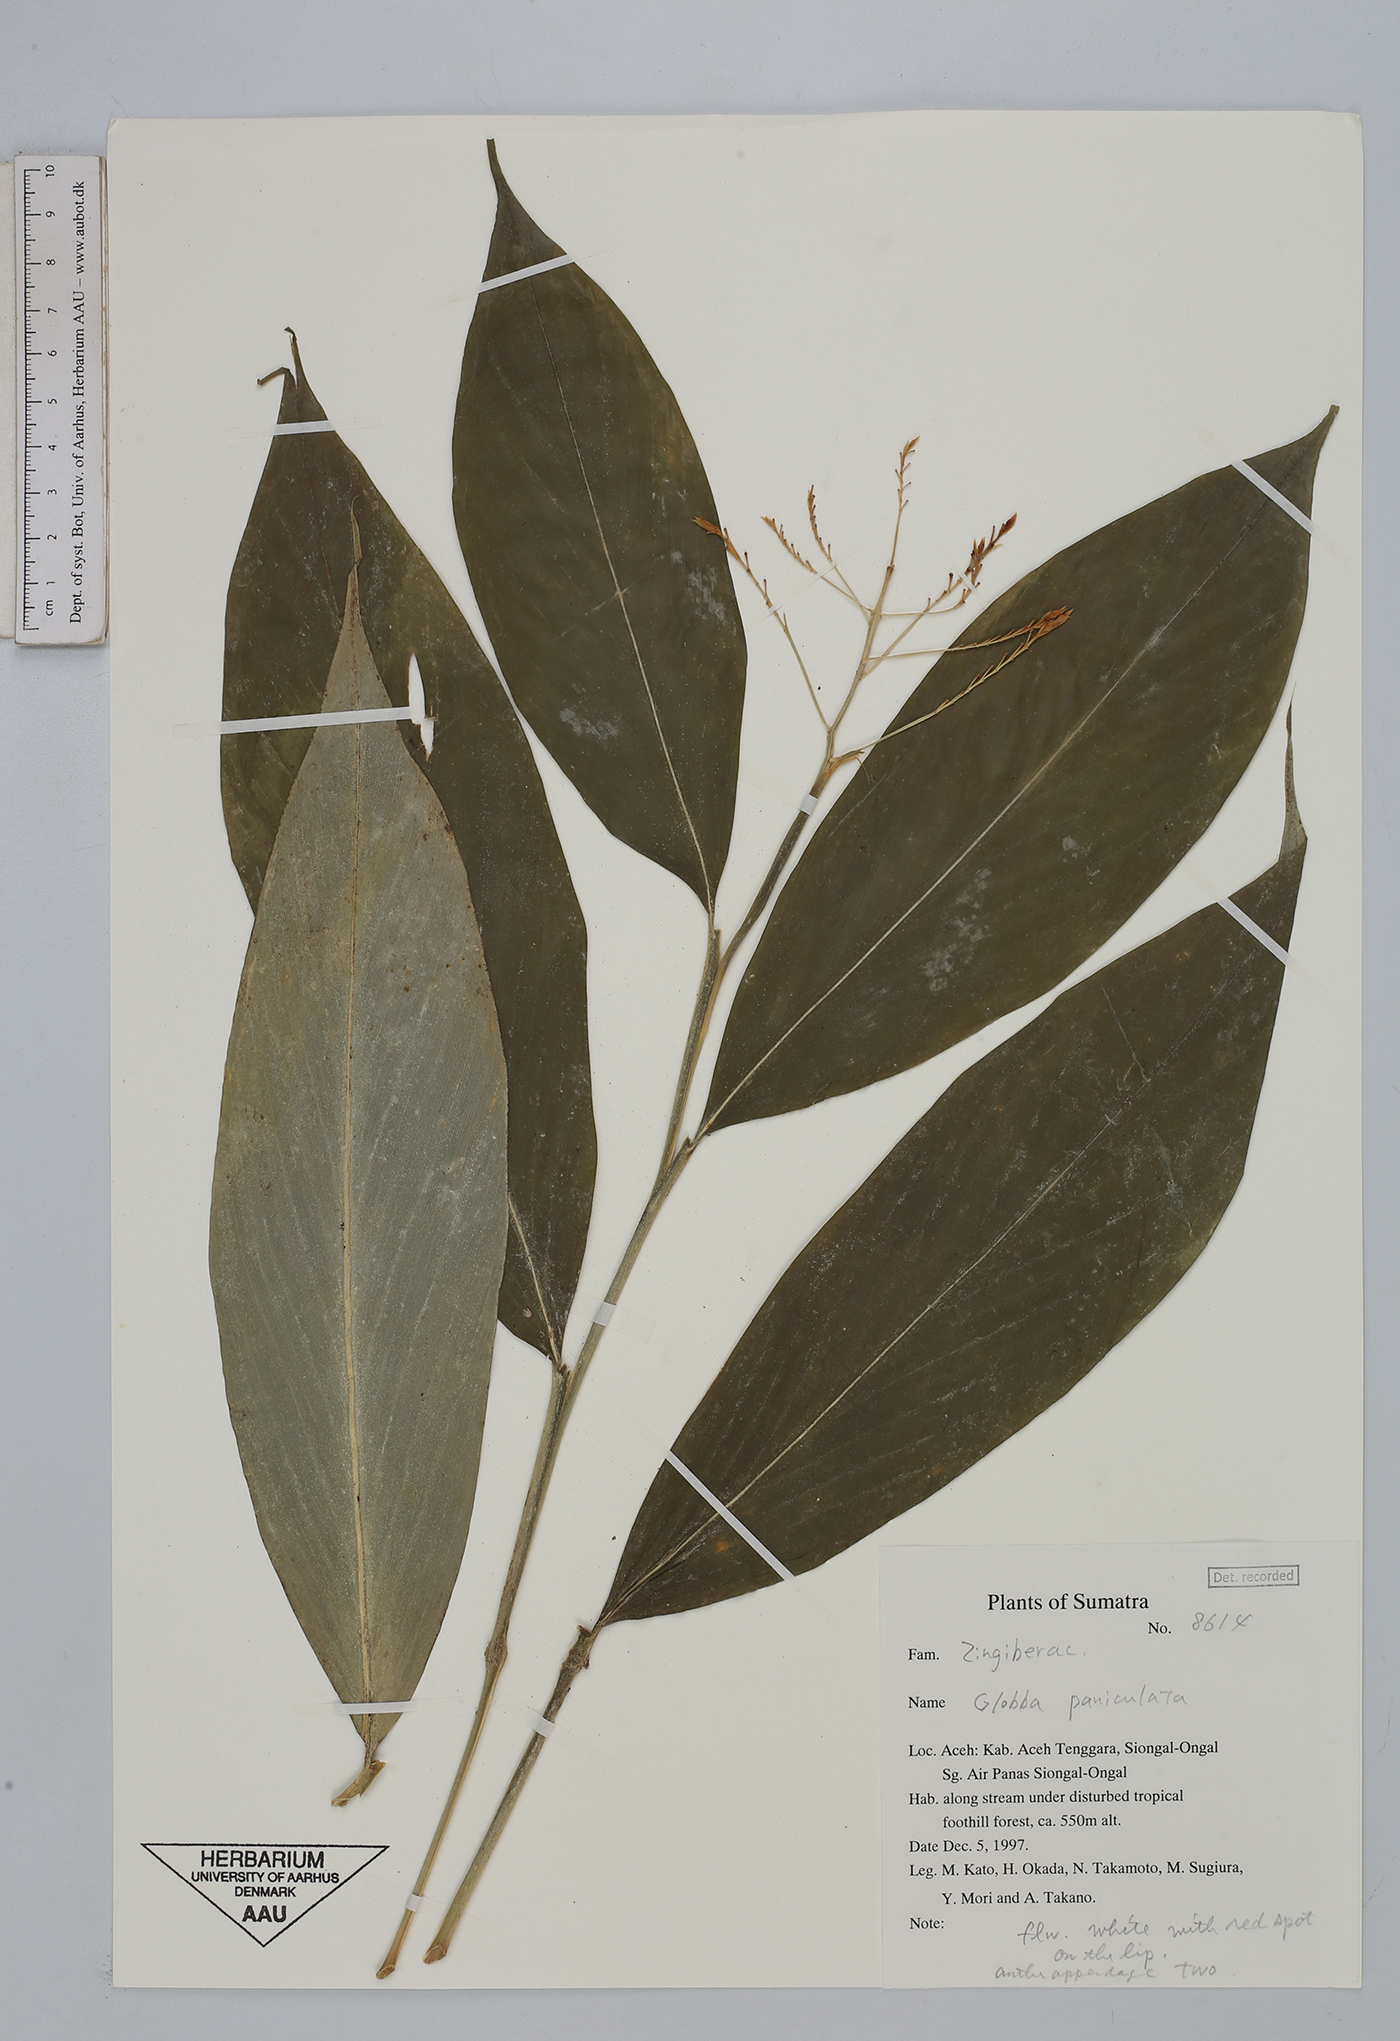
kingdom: Plantae
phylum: Tracheophyta
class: Liliopsida
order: Zingiberales
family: Zingiberaceae
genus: Globba
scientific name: Globba pyrrhopoikila
